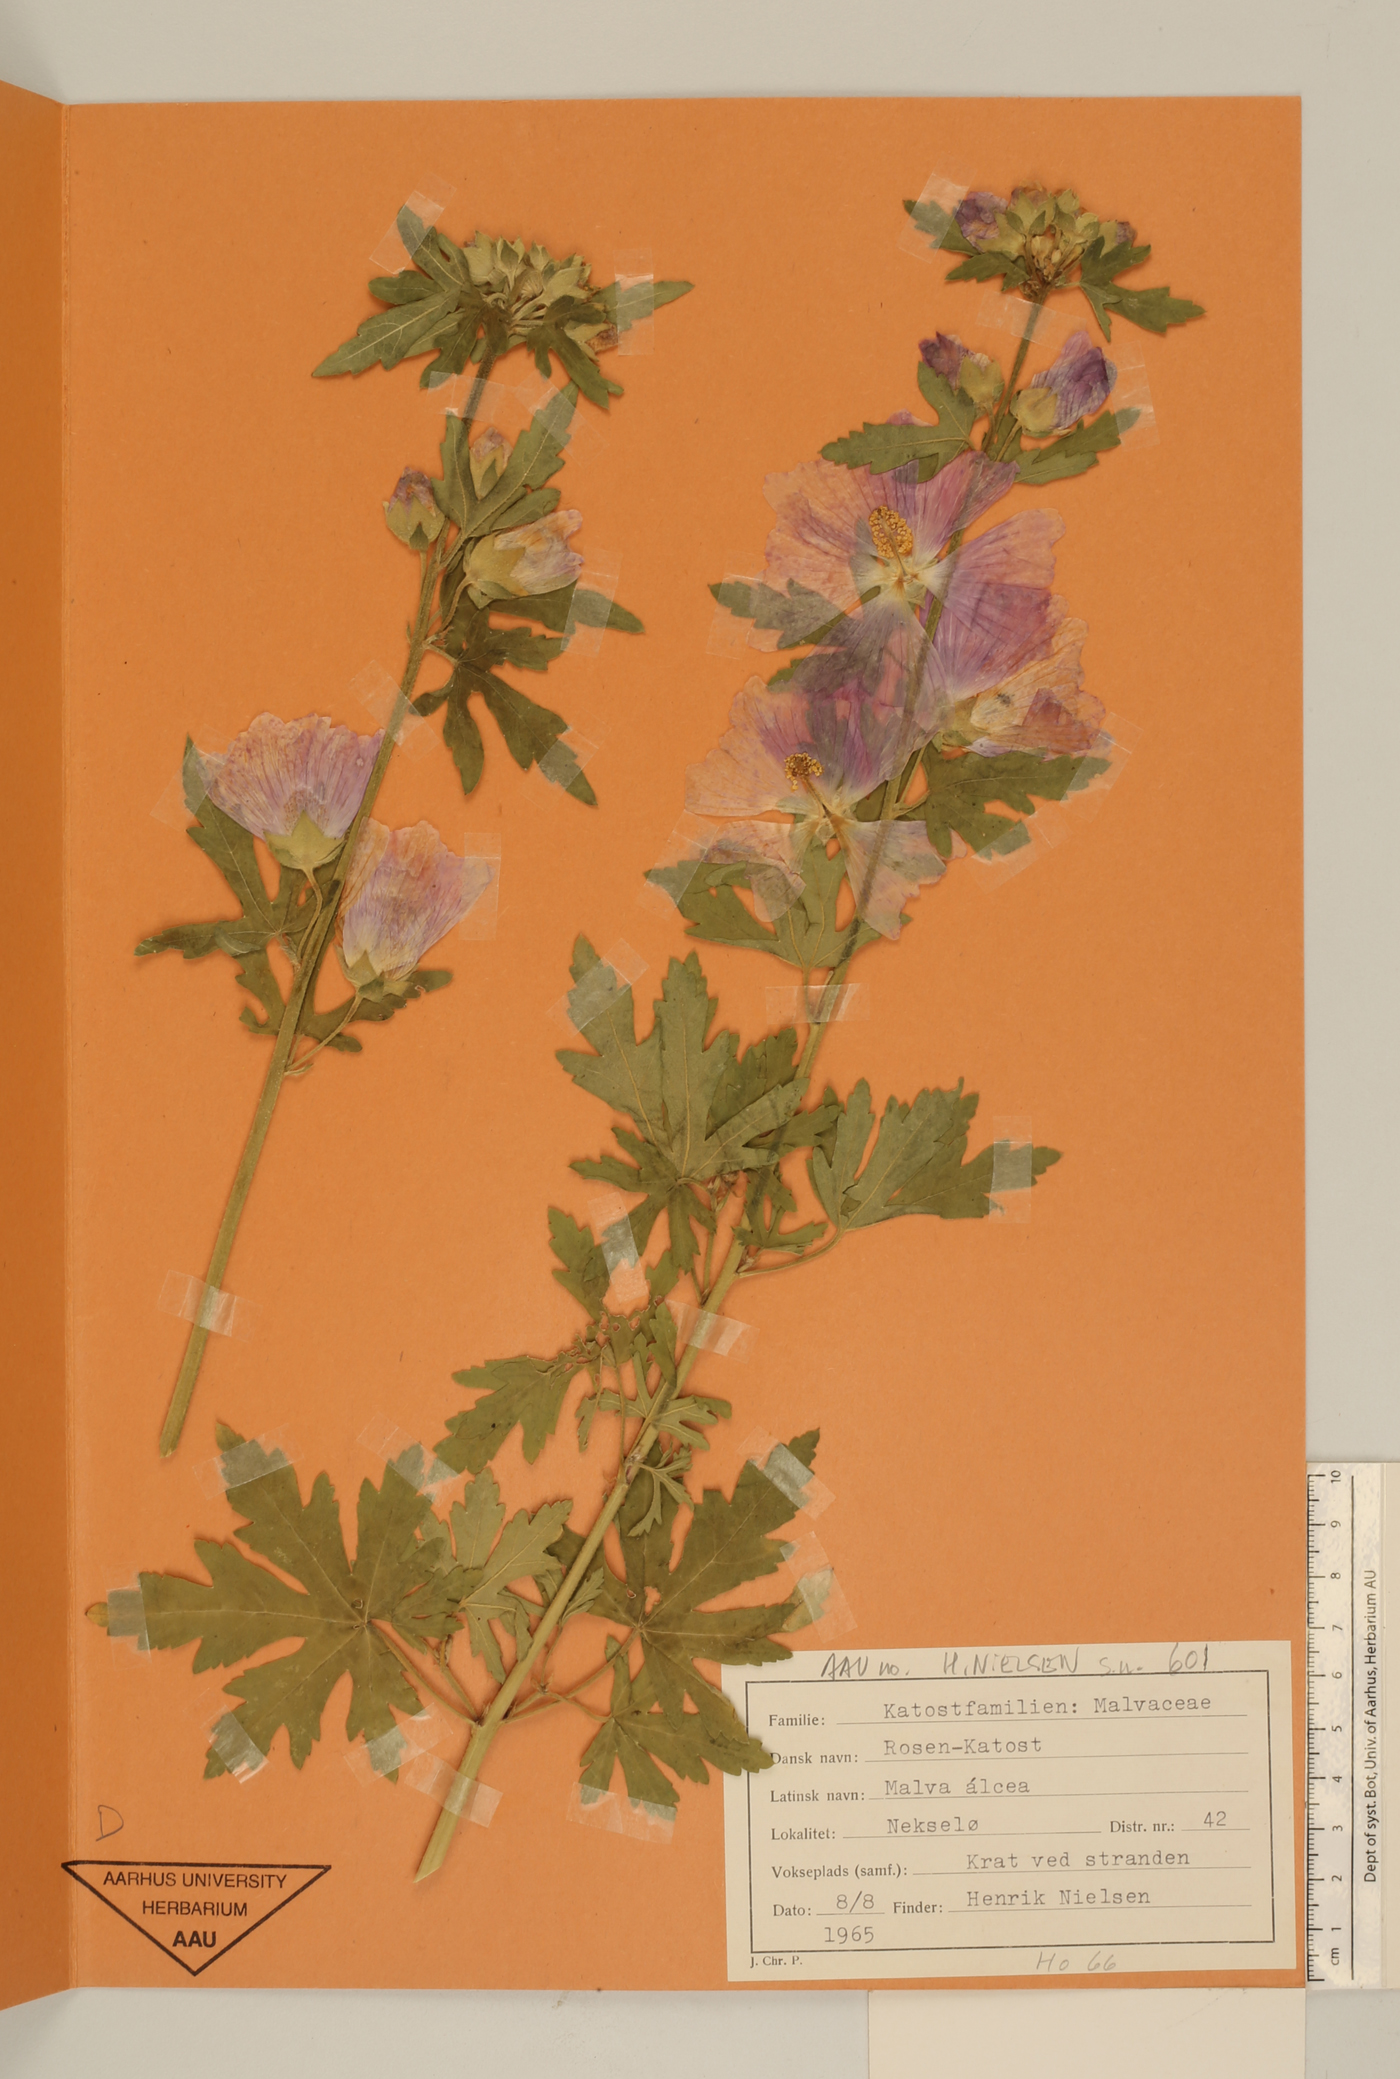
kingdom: Plantae
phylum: Tracheophyta
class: Magnoliopsida
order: Malvales
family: Malvaceae
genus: Malva
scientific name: Malva alcea
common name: Greater musk-mallow
